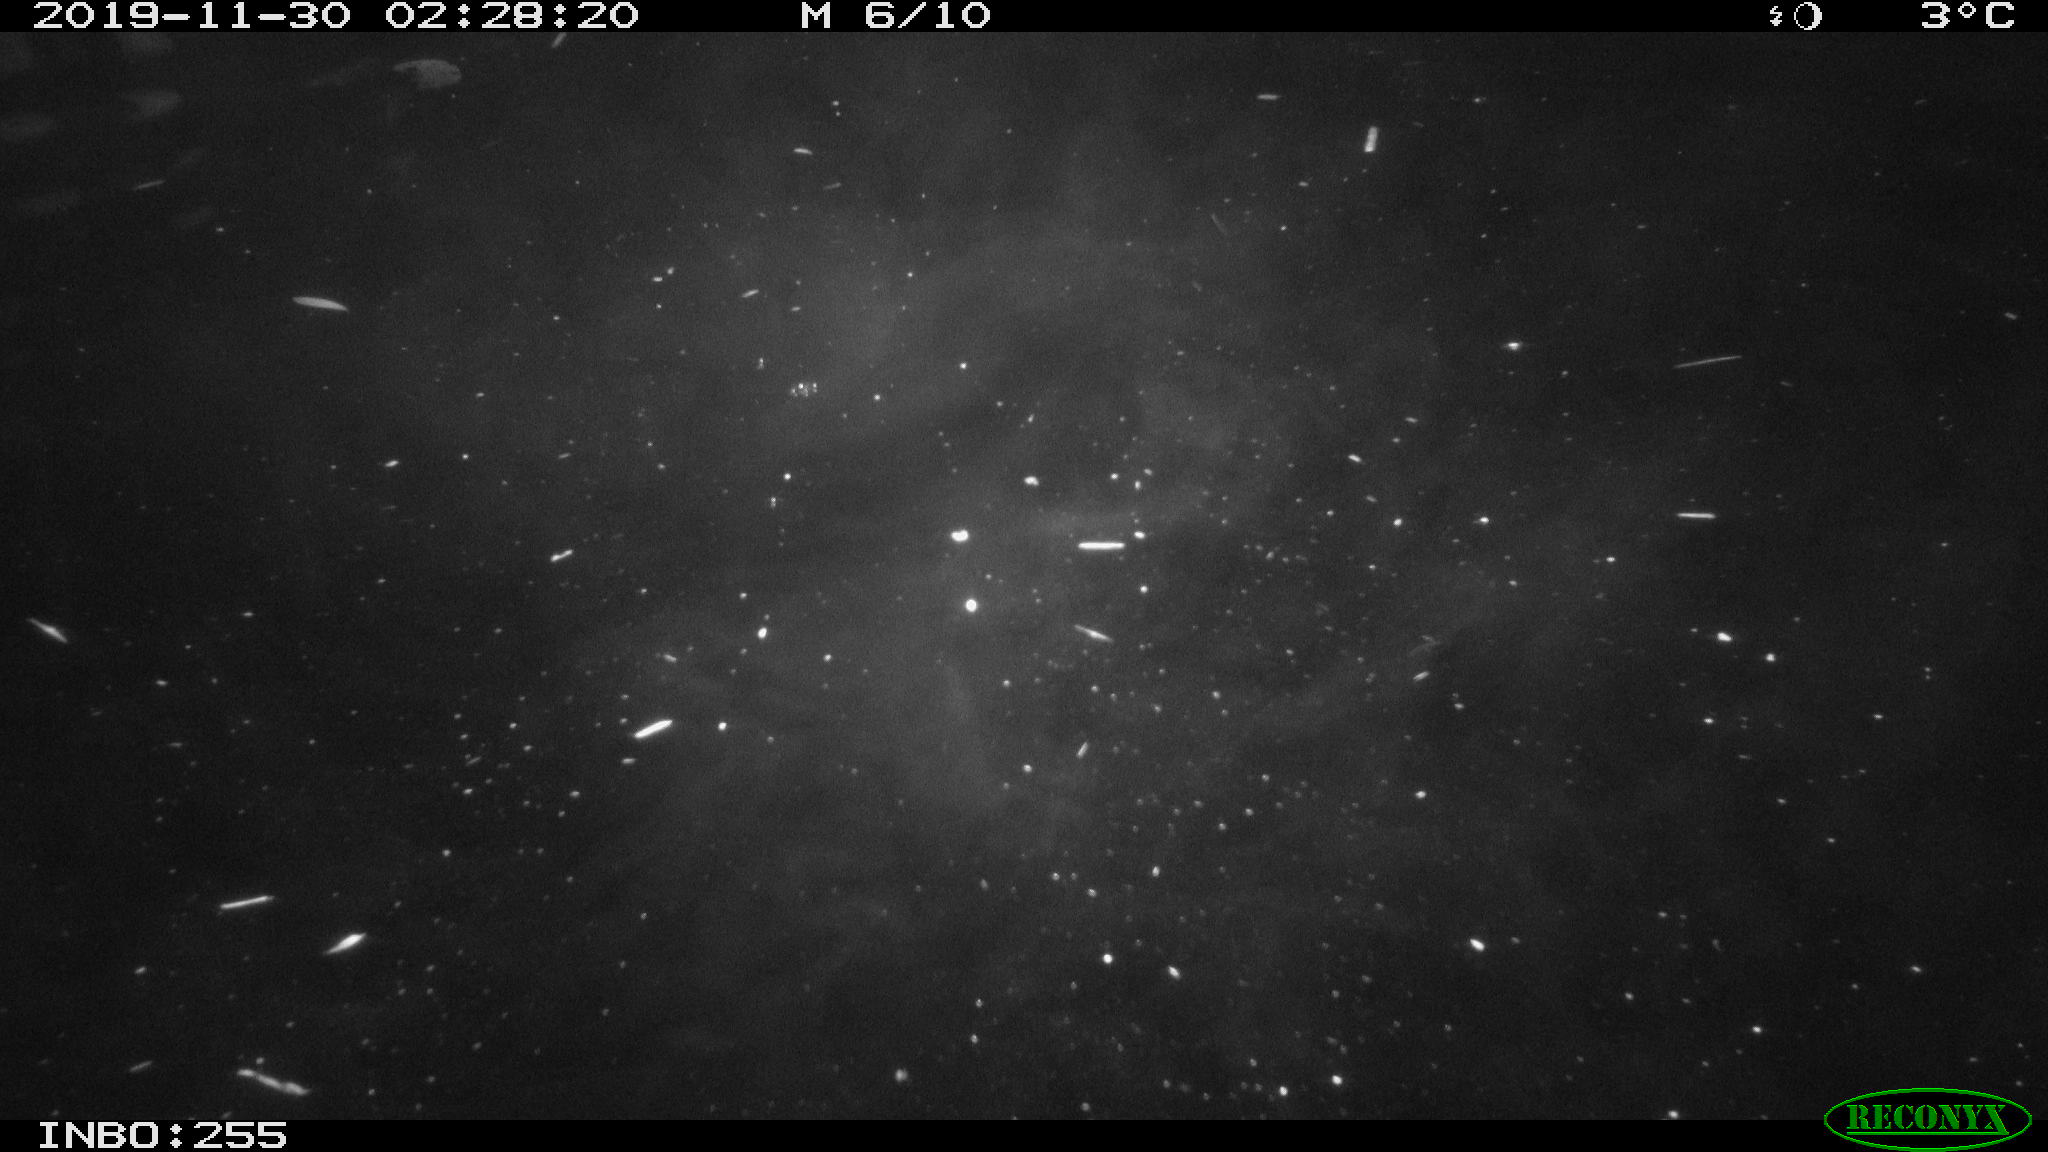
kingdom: Animalia
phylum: Chordata
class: Mammalia
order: Rodentia
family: Cricetidae
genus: Ondatra
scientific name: Ondatra zibethicus
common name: Muskrat
